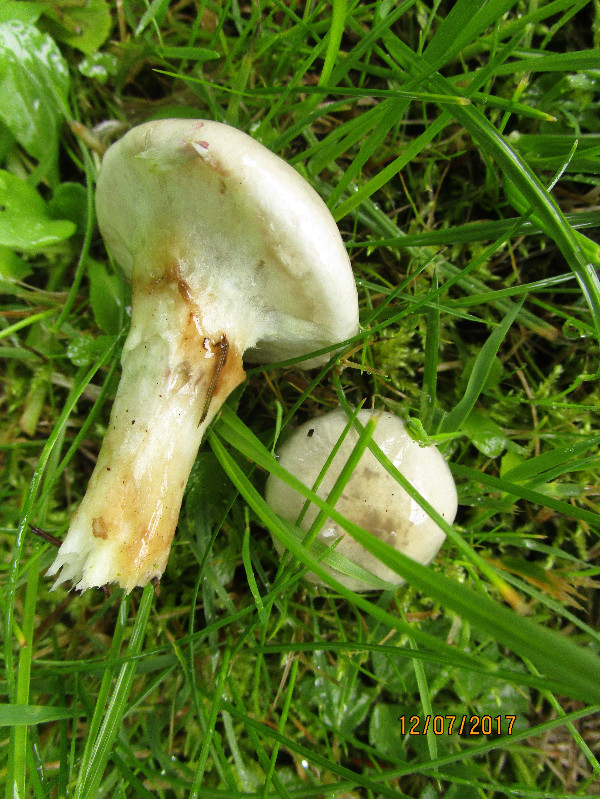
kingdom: Fungi
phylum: Basidiomycota
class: Agaricomycetes
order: Boletales
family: Suillaceae
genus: Suillus
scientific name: Suillus viscidus
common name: olivengrå slimrørhat
